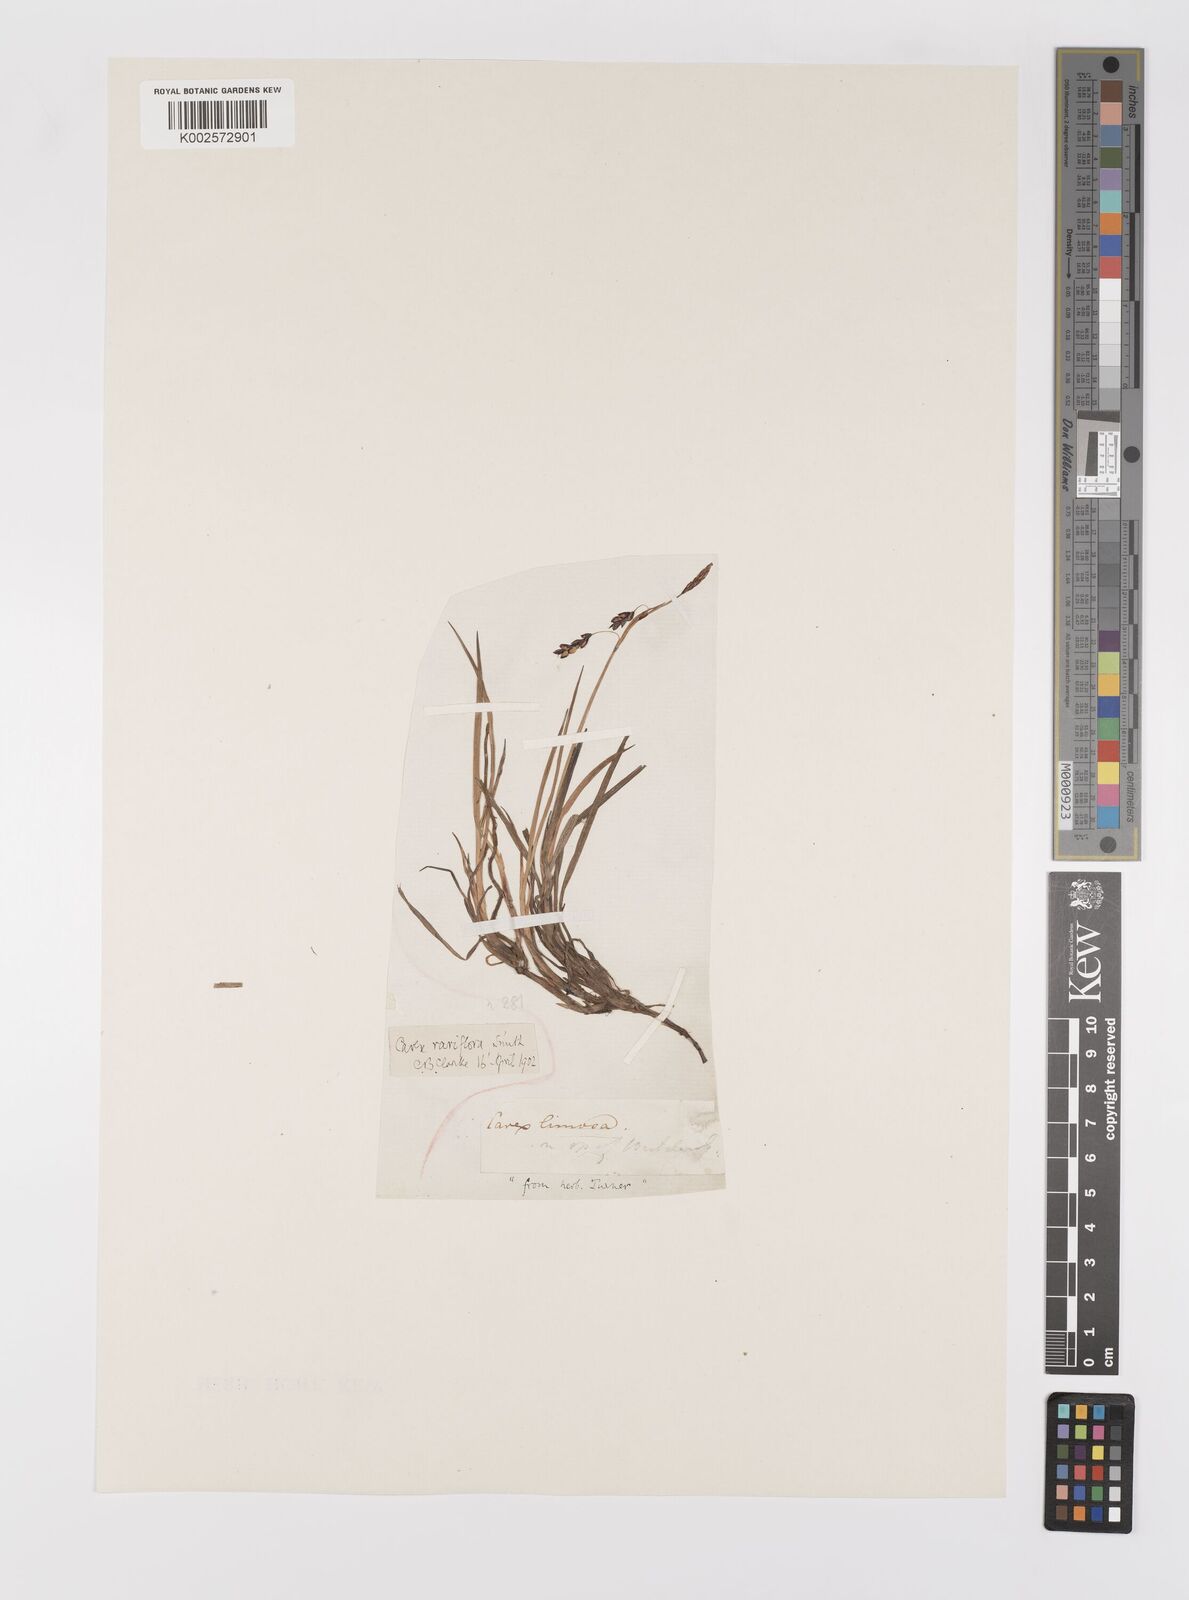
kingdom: Plantae
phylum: Tracheophyta
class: Liliopsida
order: Poales
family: Cyperaceae
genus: Carex
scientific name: Carex rariflora
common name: Loose-flowered alpine sedge
